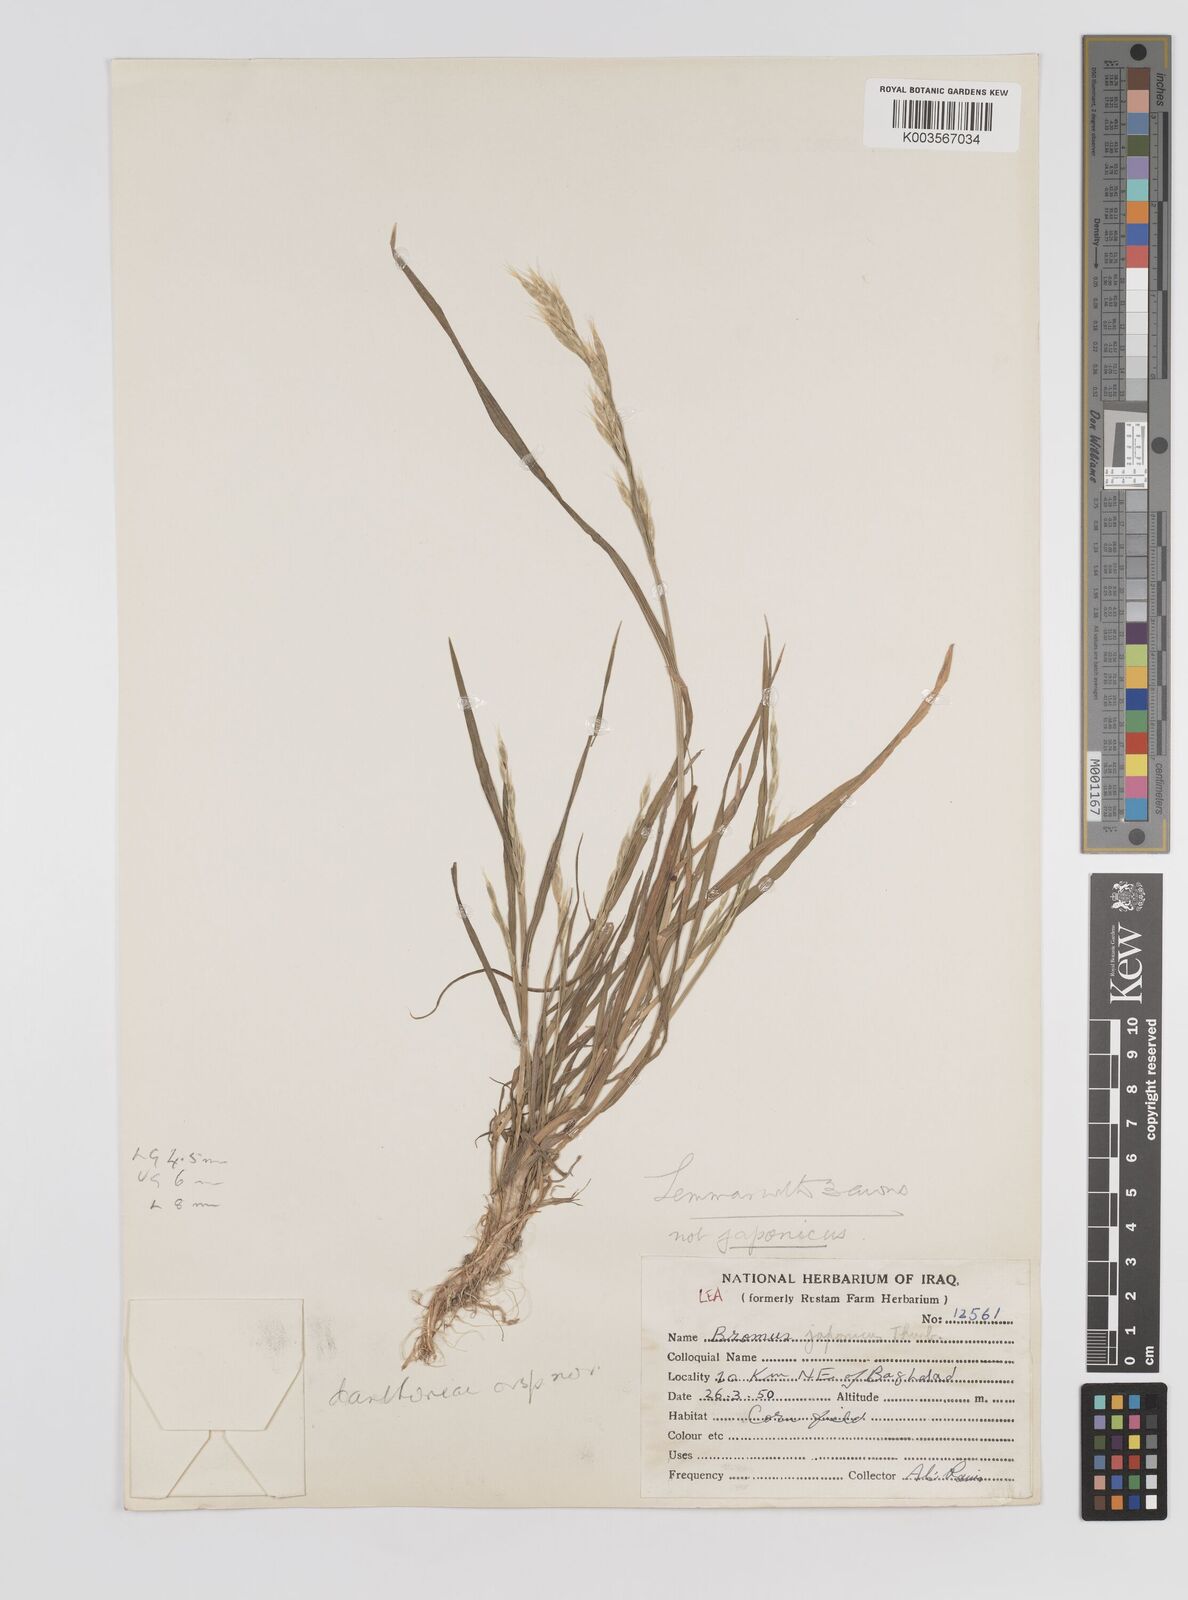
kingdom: Plantae
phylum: Tracheophyta
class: Liliopsida
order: Poales
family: Poaceae
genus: Bromus
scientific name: Bromus danthoniae
